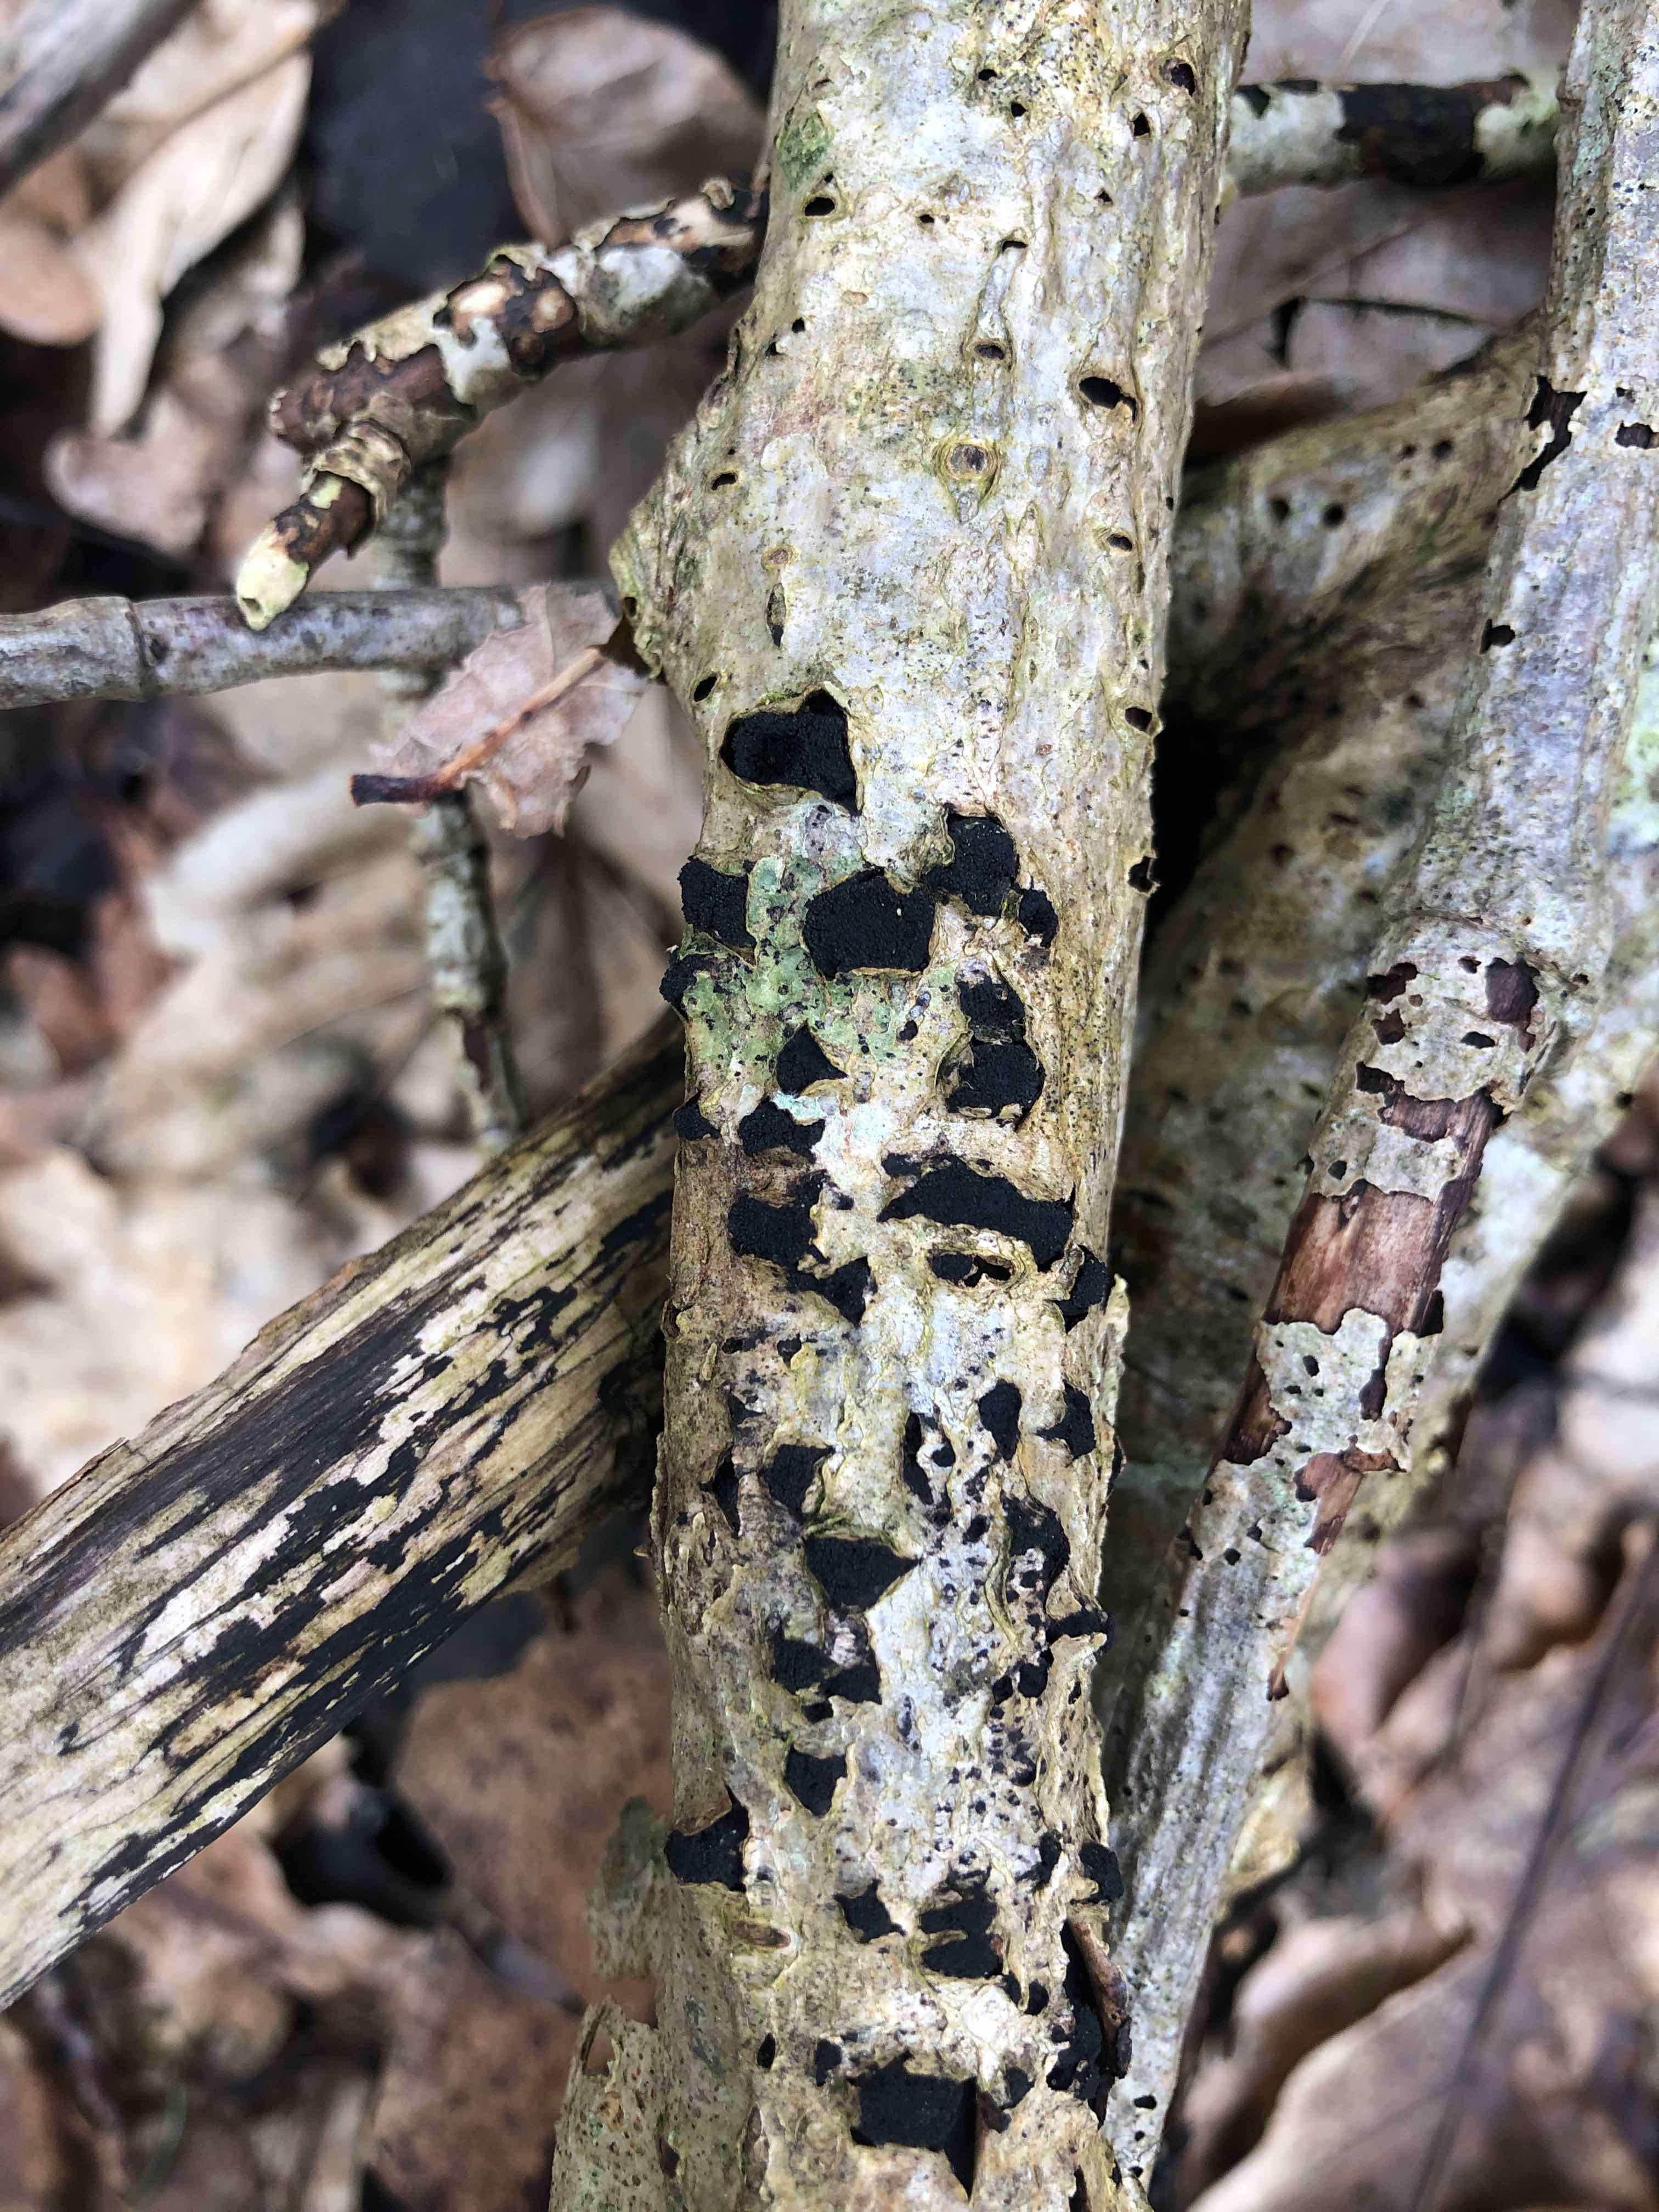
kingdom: Fungi
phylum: Ascomycota
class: Sordariomycetes
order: Xylariales
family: Diatrypaceae
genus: Eutypella
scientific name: Eutypella sorbi
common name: rønne-kulskorpe
